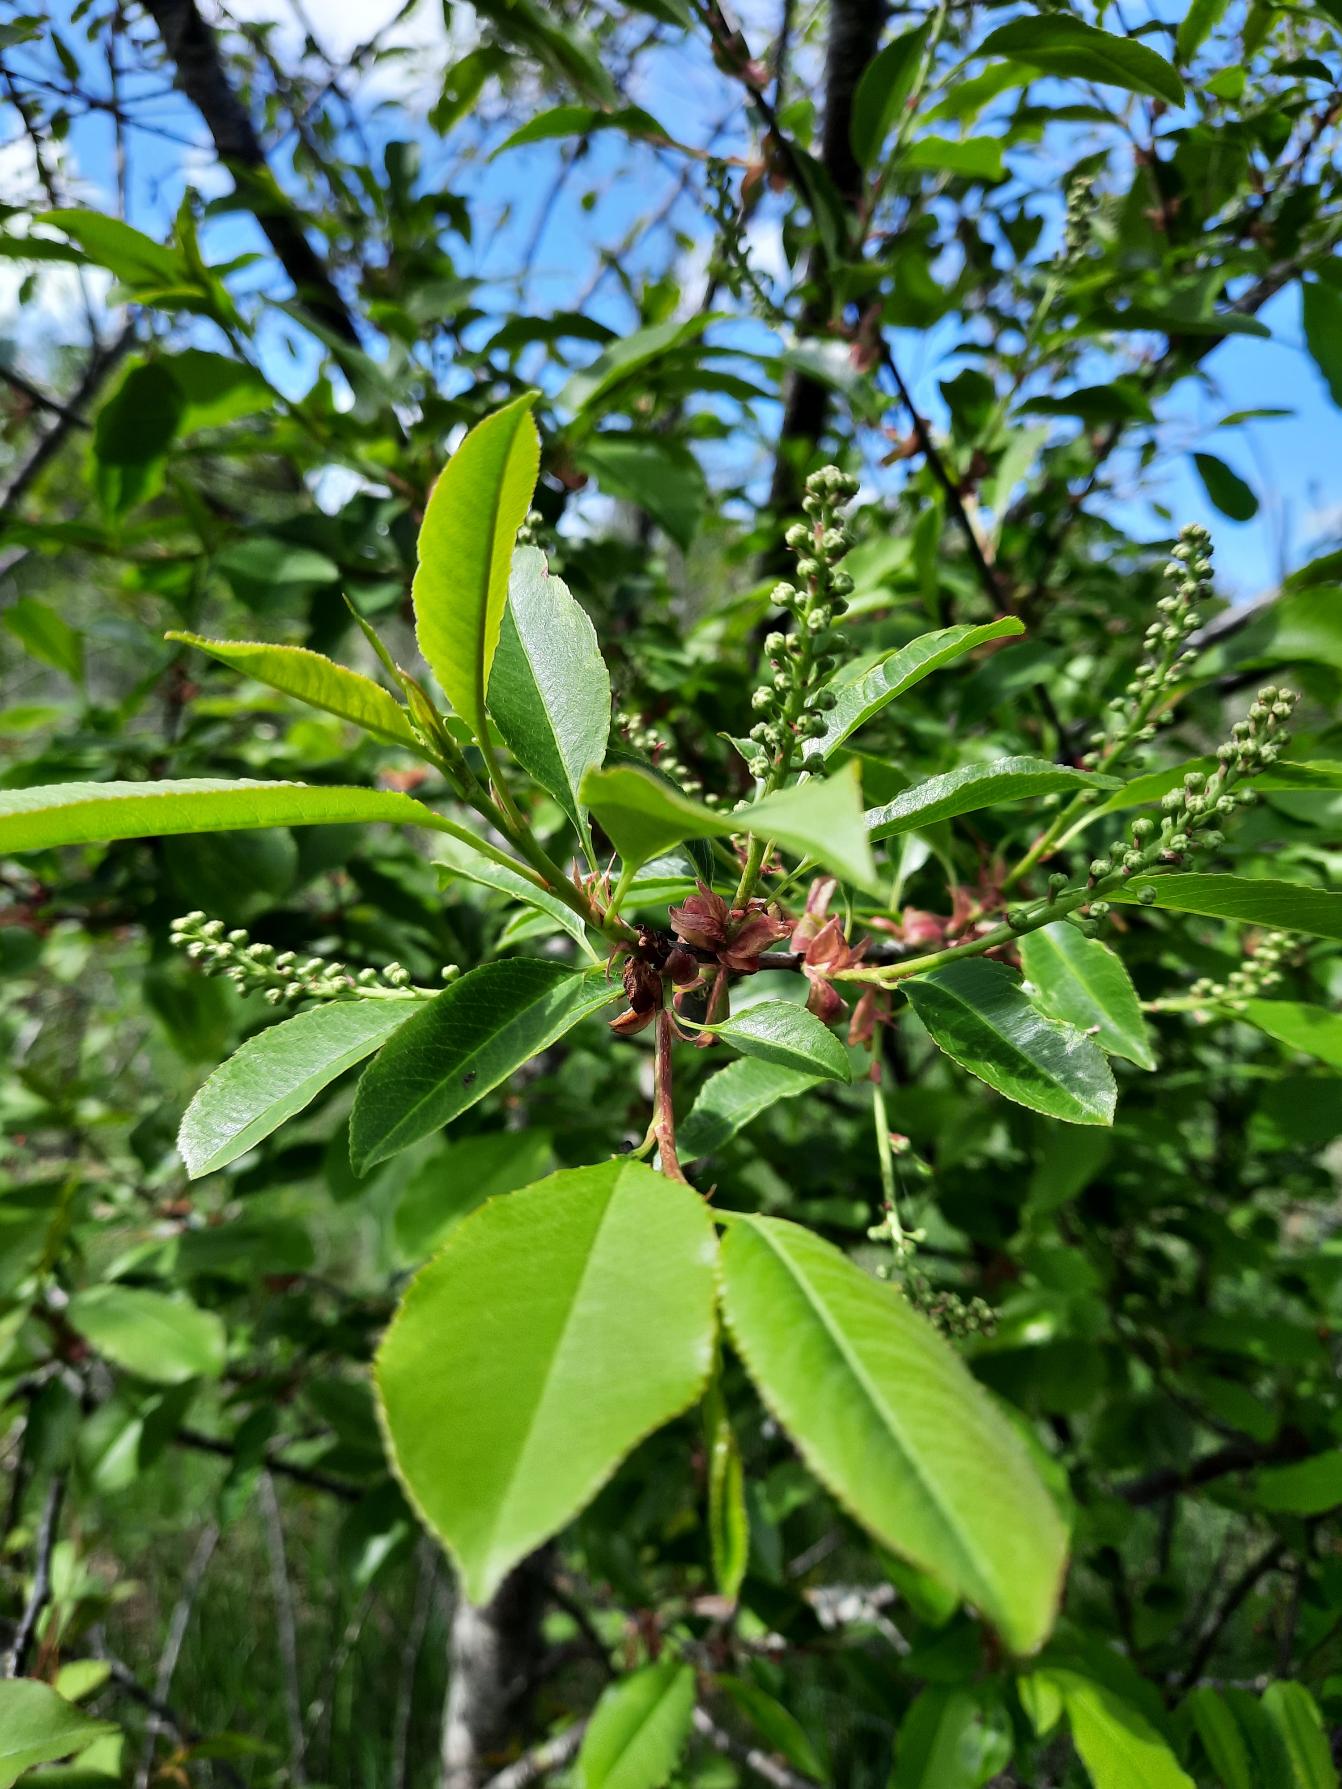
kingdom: Plantae
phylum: Tracheophyta
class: Magnoliopsida
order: Rosales
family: Rosaceae
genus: Prunus
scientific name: Prunus serotina
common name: Glansbladet hæg
